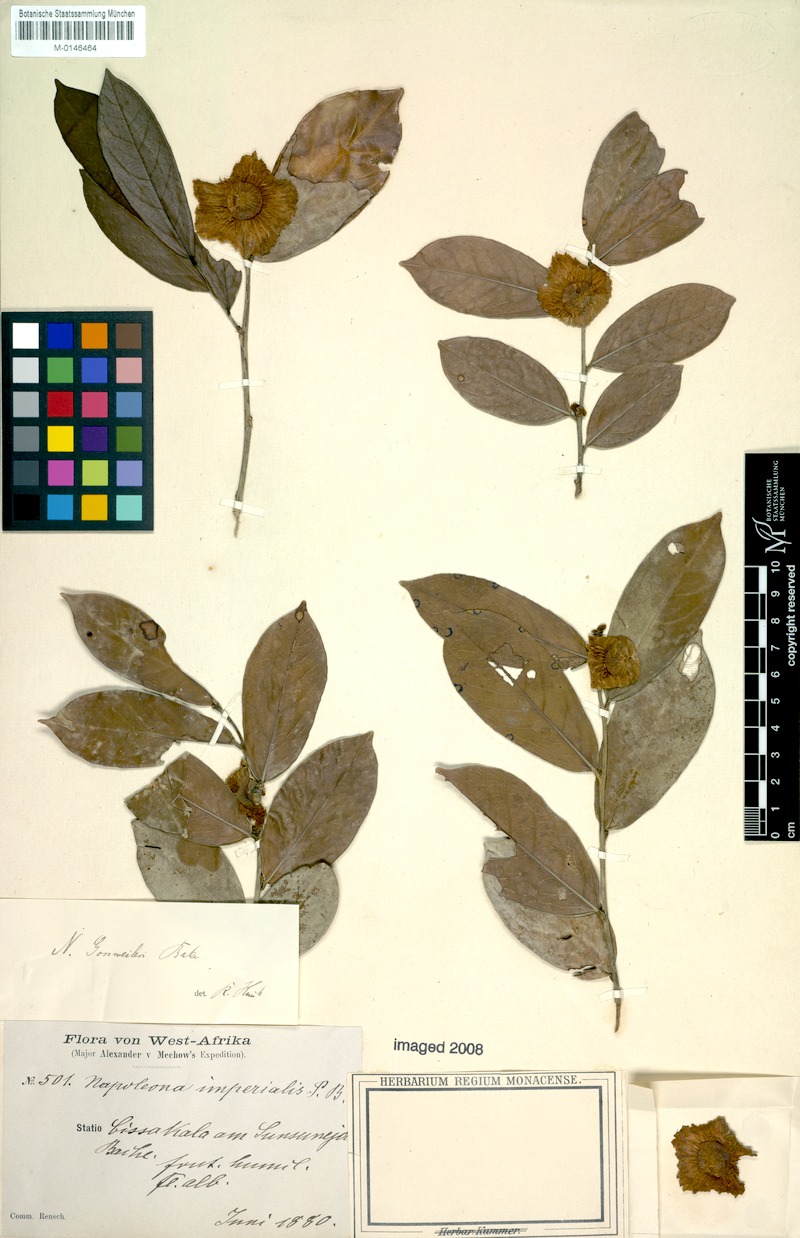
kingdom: Plantae
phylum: Tracheophyta
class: Magnoliopsida
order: Ericales
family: Lecythidaceae
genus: Napoleonaea
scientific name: Napoleonaea gossweileri
